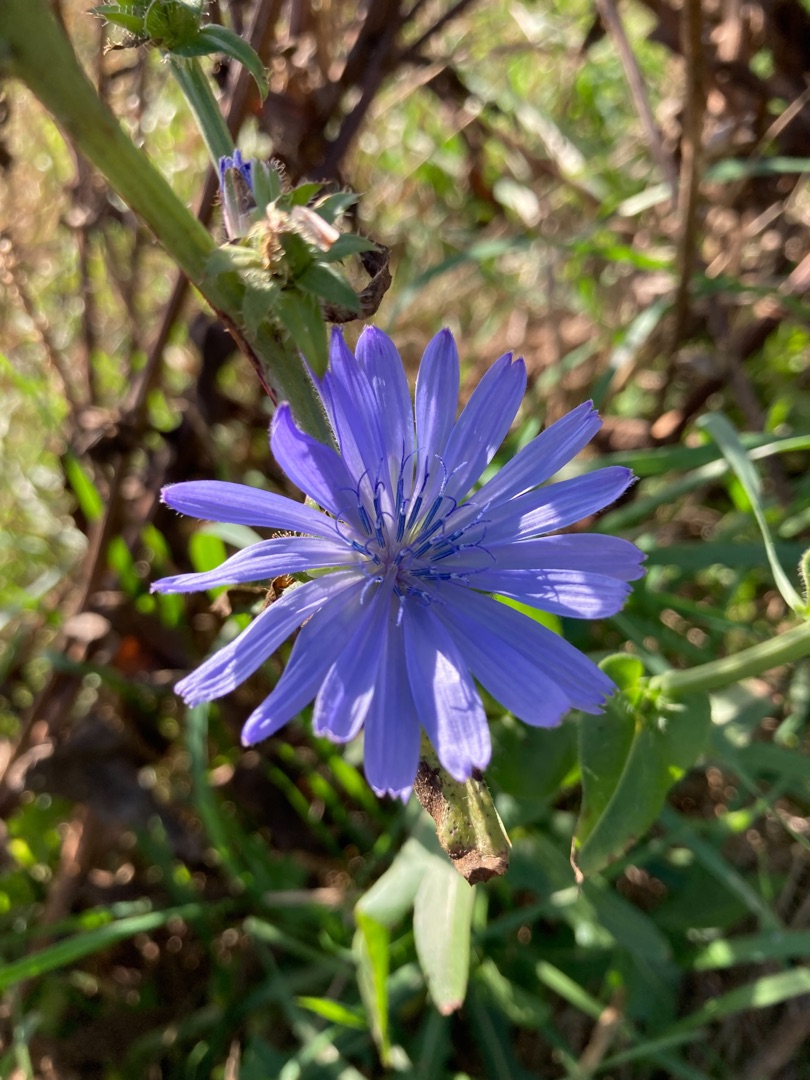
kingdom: Plantae
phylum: Tracheophyta
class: Magnoliopsida
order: Asterales
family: Asteraceae
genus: Cichorium
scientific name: Cichorium intybus
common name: Cikorie
